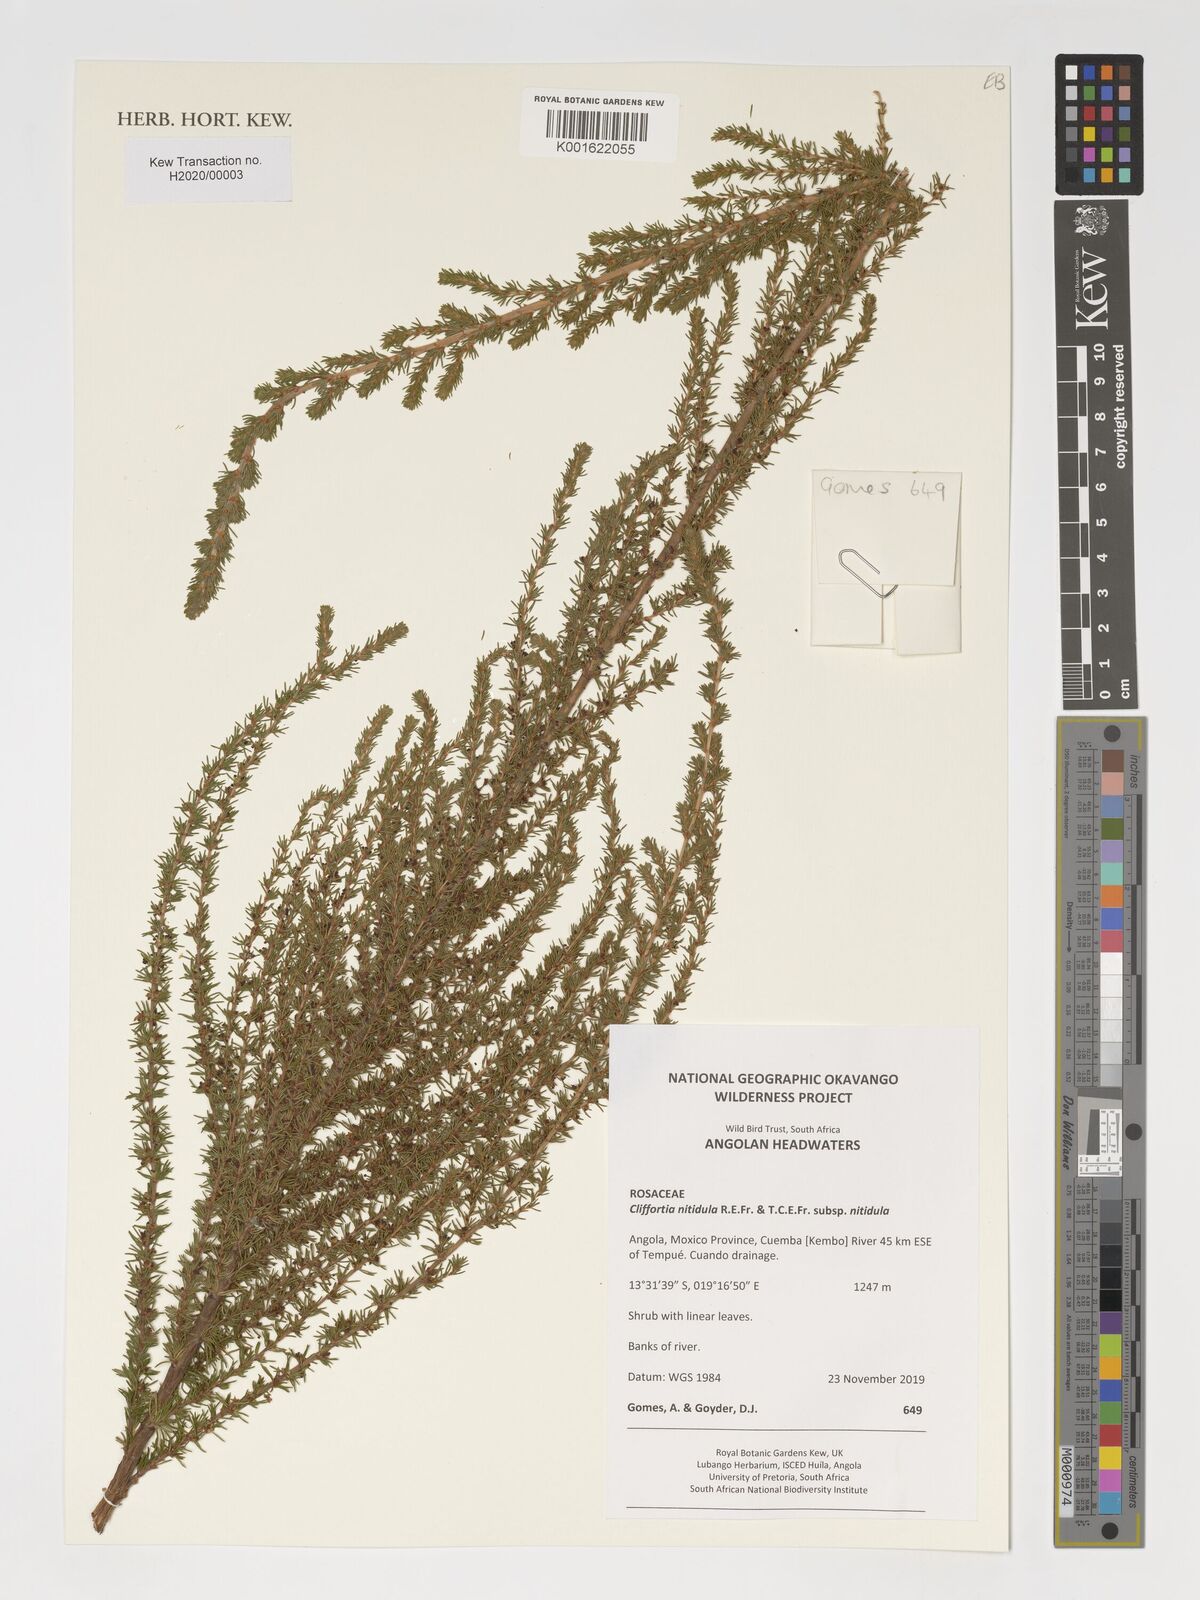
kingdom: Plantae
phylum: Tracheophyta
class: Magnoliopsida
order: Rosales
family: Rosaceae
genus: Cliffortia
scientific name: Cliffortia nitidula
